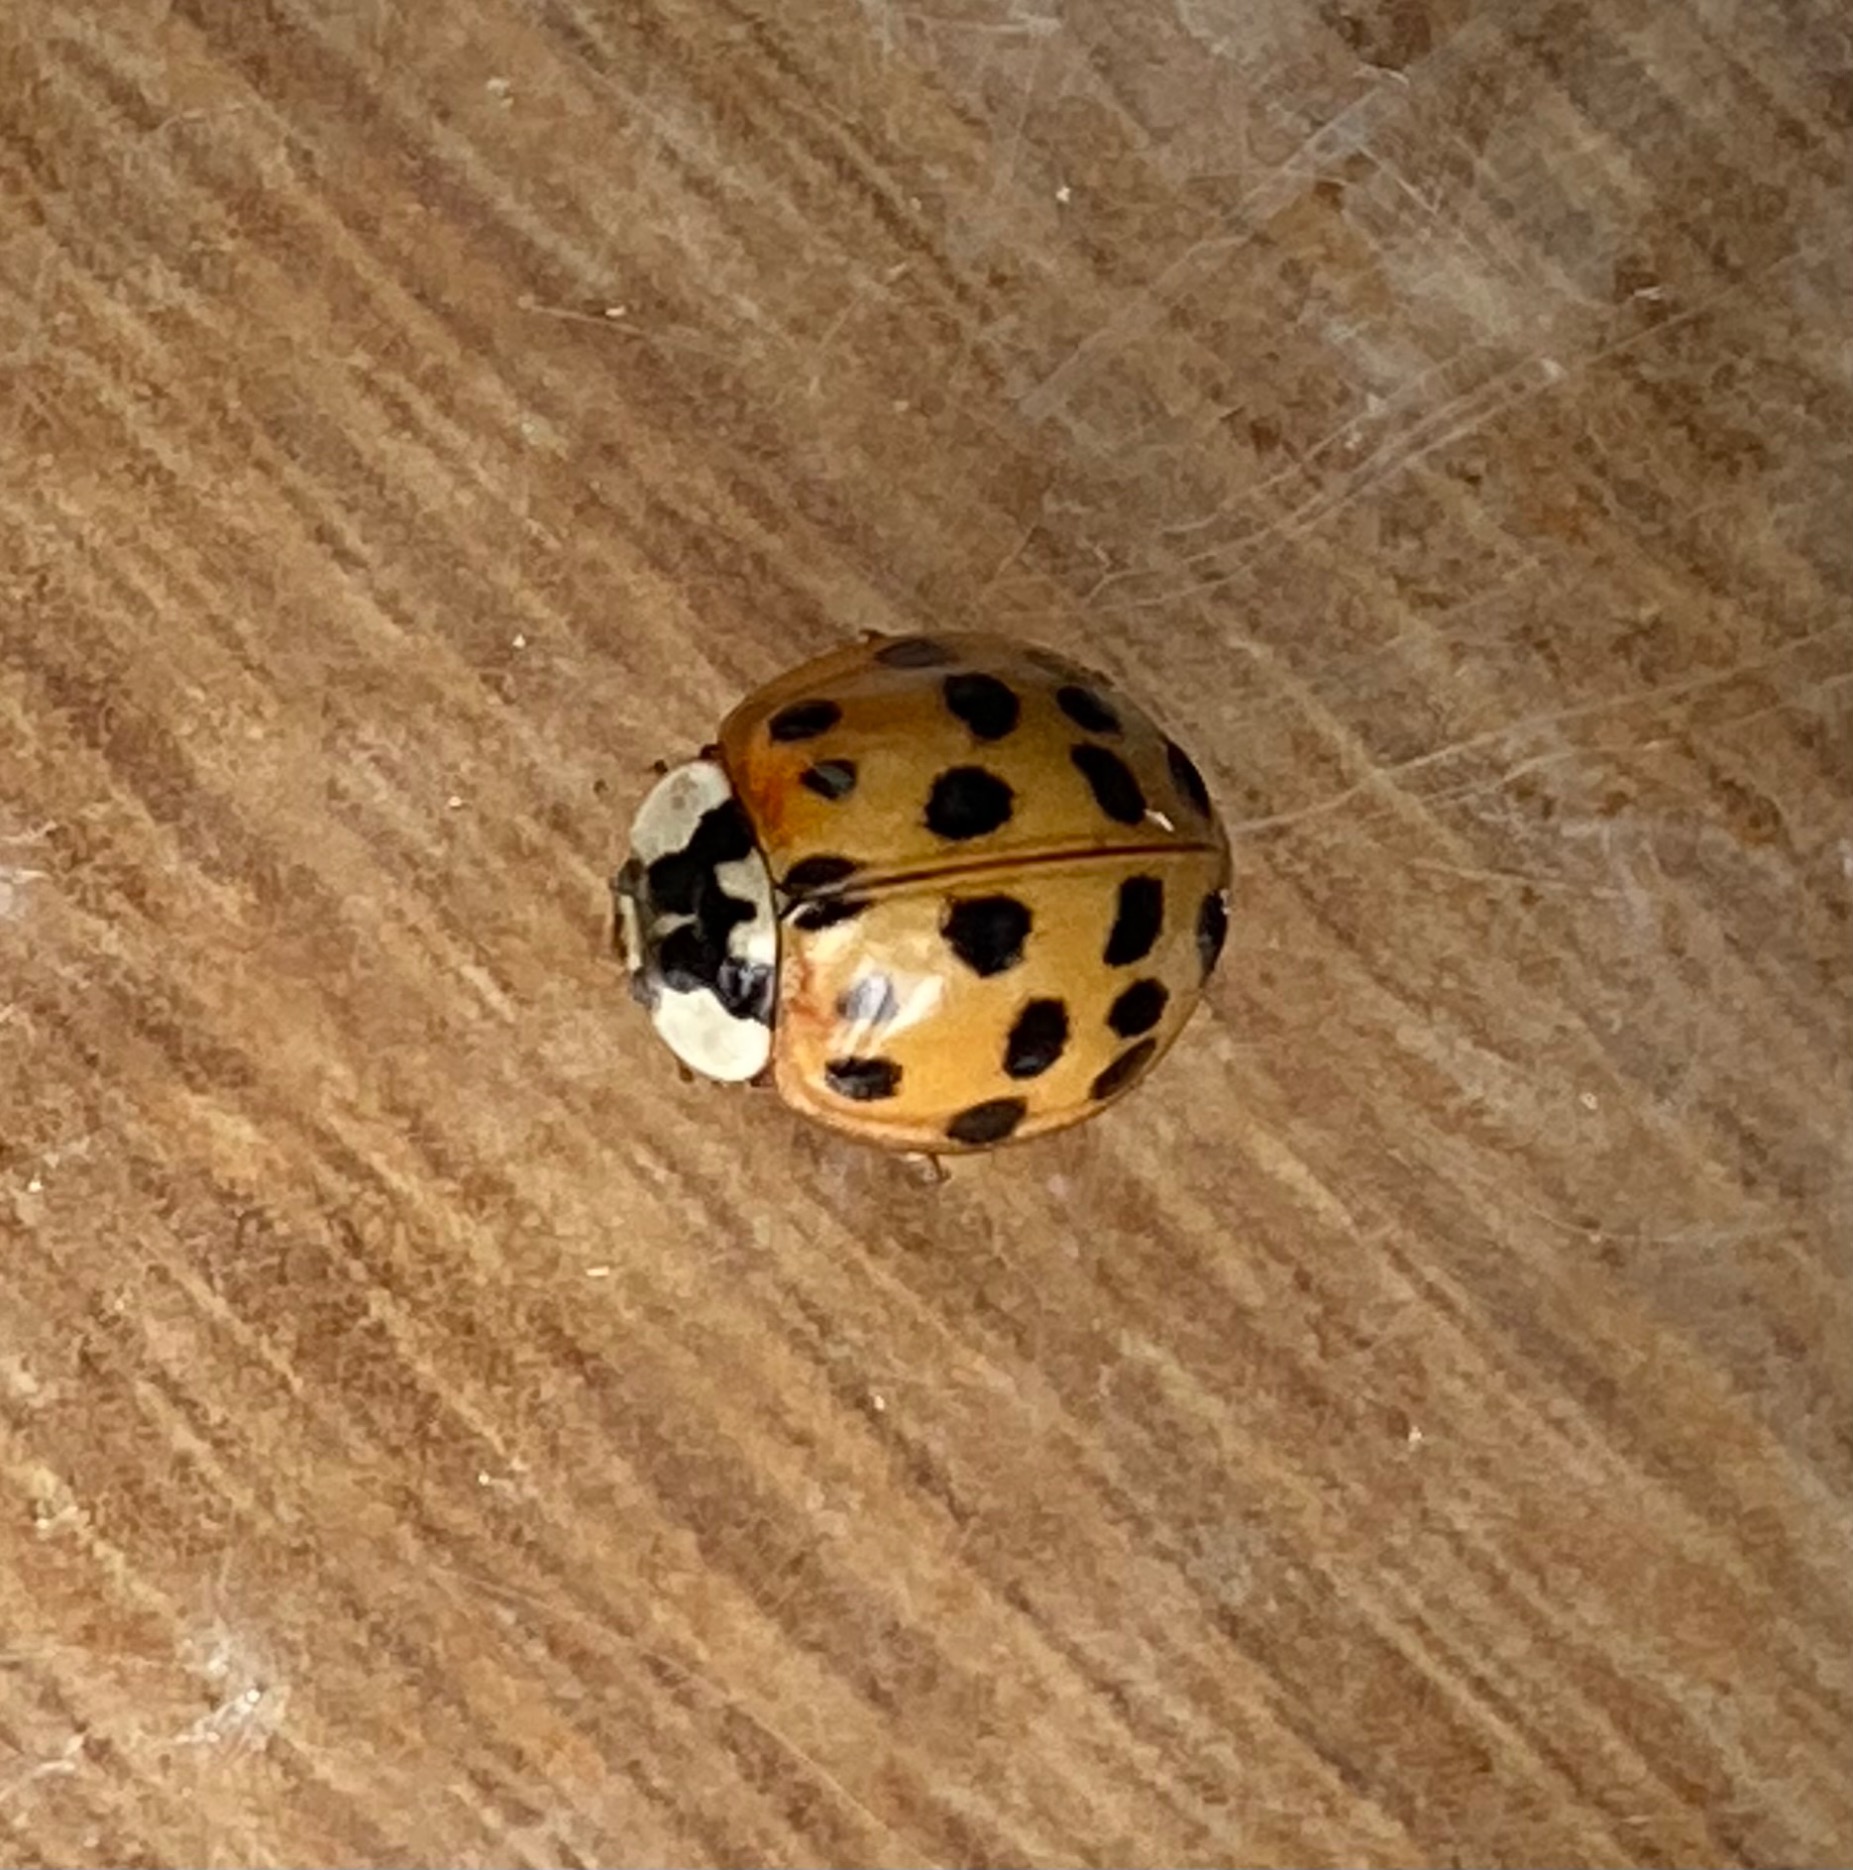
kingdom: Animalia
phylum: Arthropoda
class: Insecta
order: Coleoptera
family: Coccinellidae
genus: Harmonia
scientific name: Harmonia axyridis
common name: Harlekinmariehøne
